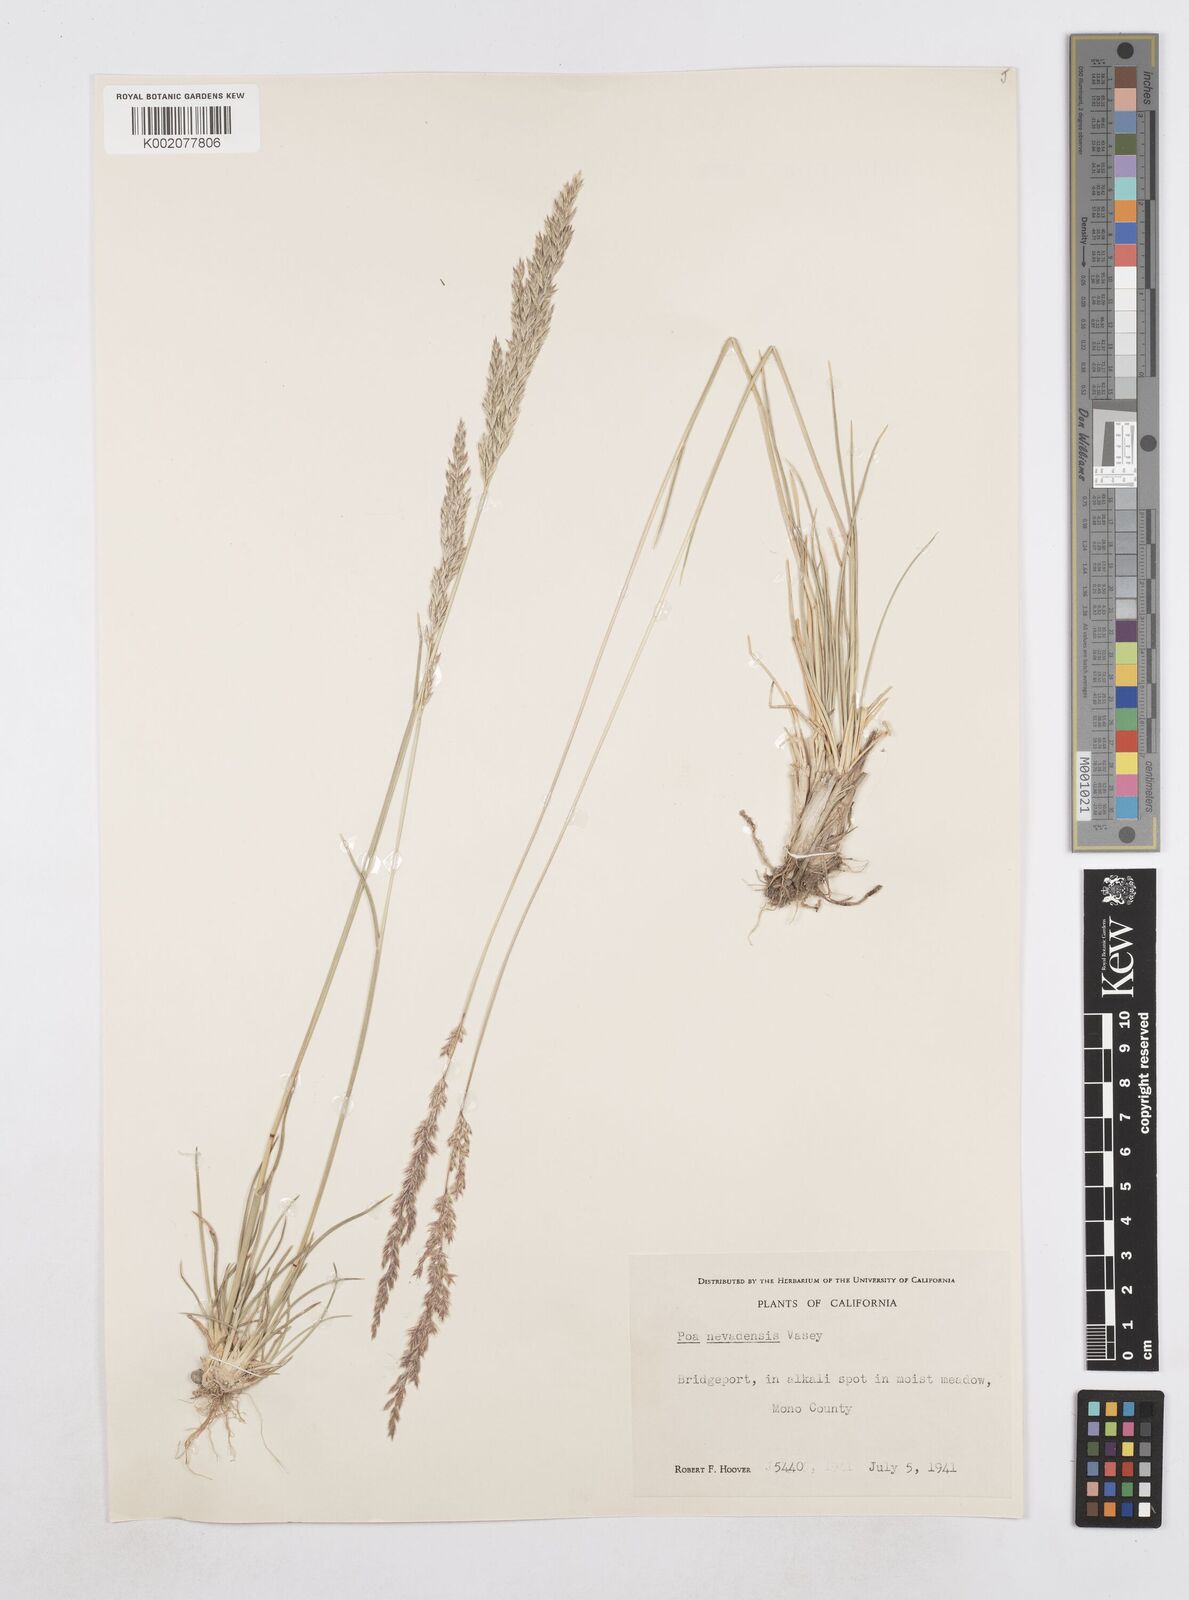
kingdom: Plantae
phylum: Tracheophyta
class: Liliopsida
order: Poales
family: Poaceae
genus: Poa
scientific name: Poa secunda
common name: Sandberg bluegrass
